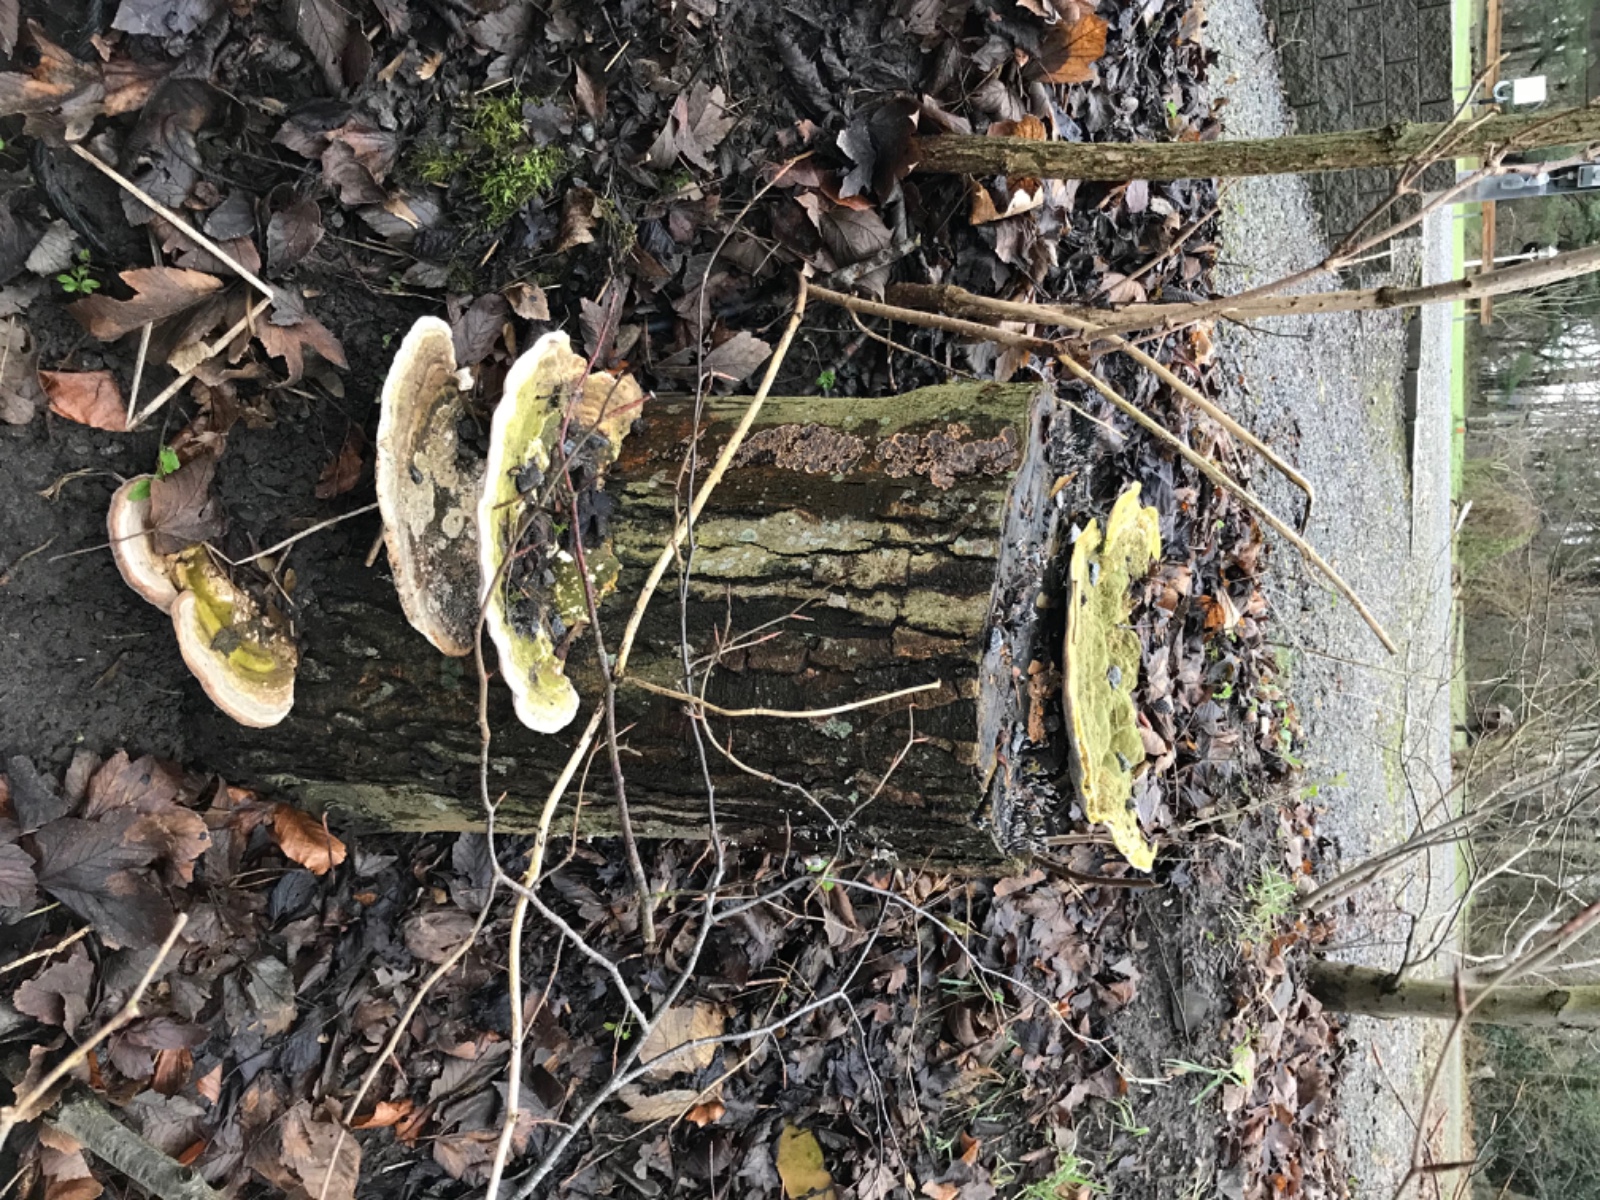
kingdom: Fungi
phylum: Basidiomycota
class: Agaricomycetes
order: Polyporales
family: Polyporaceae
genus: Trametes
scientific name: Trametes gibbosa
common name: puklet læderporesvamp
